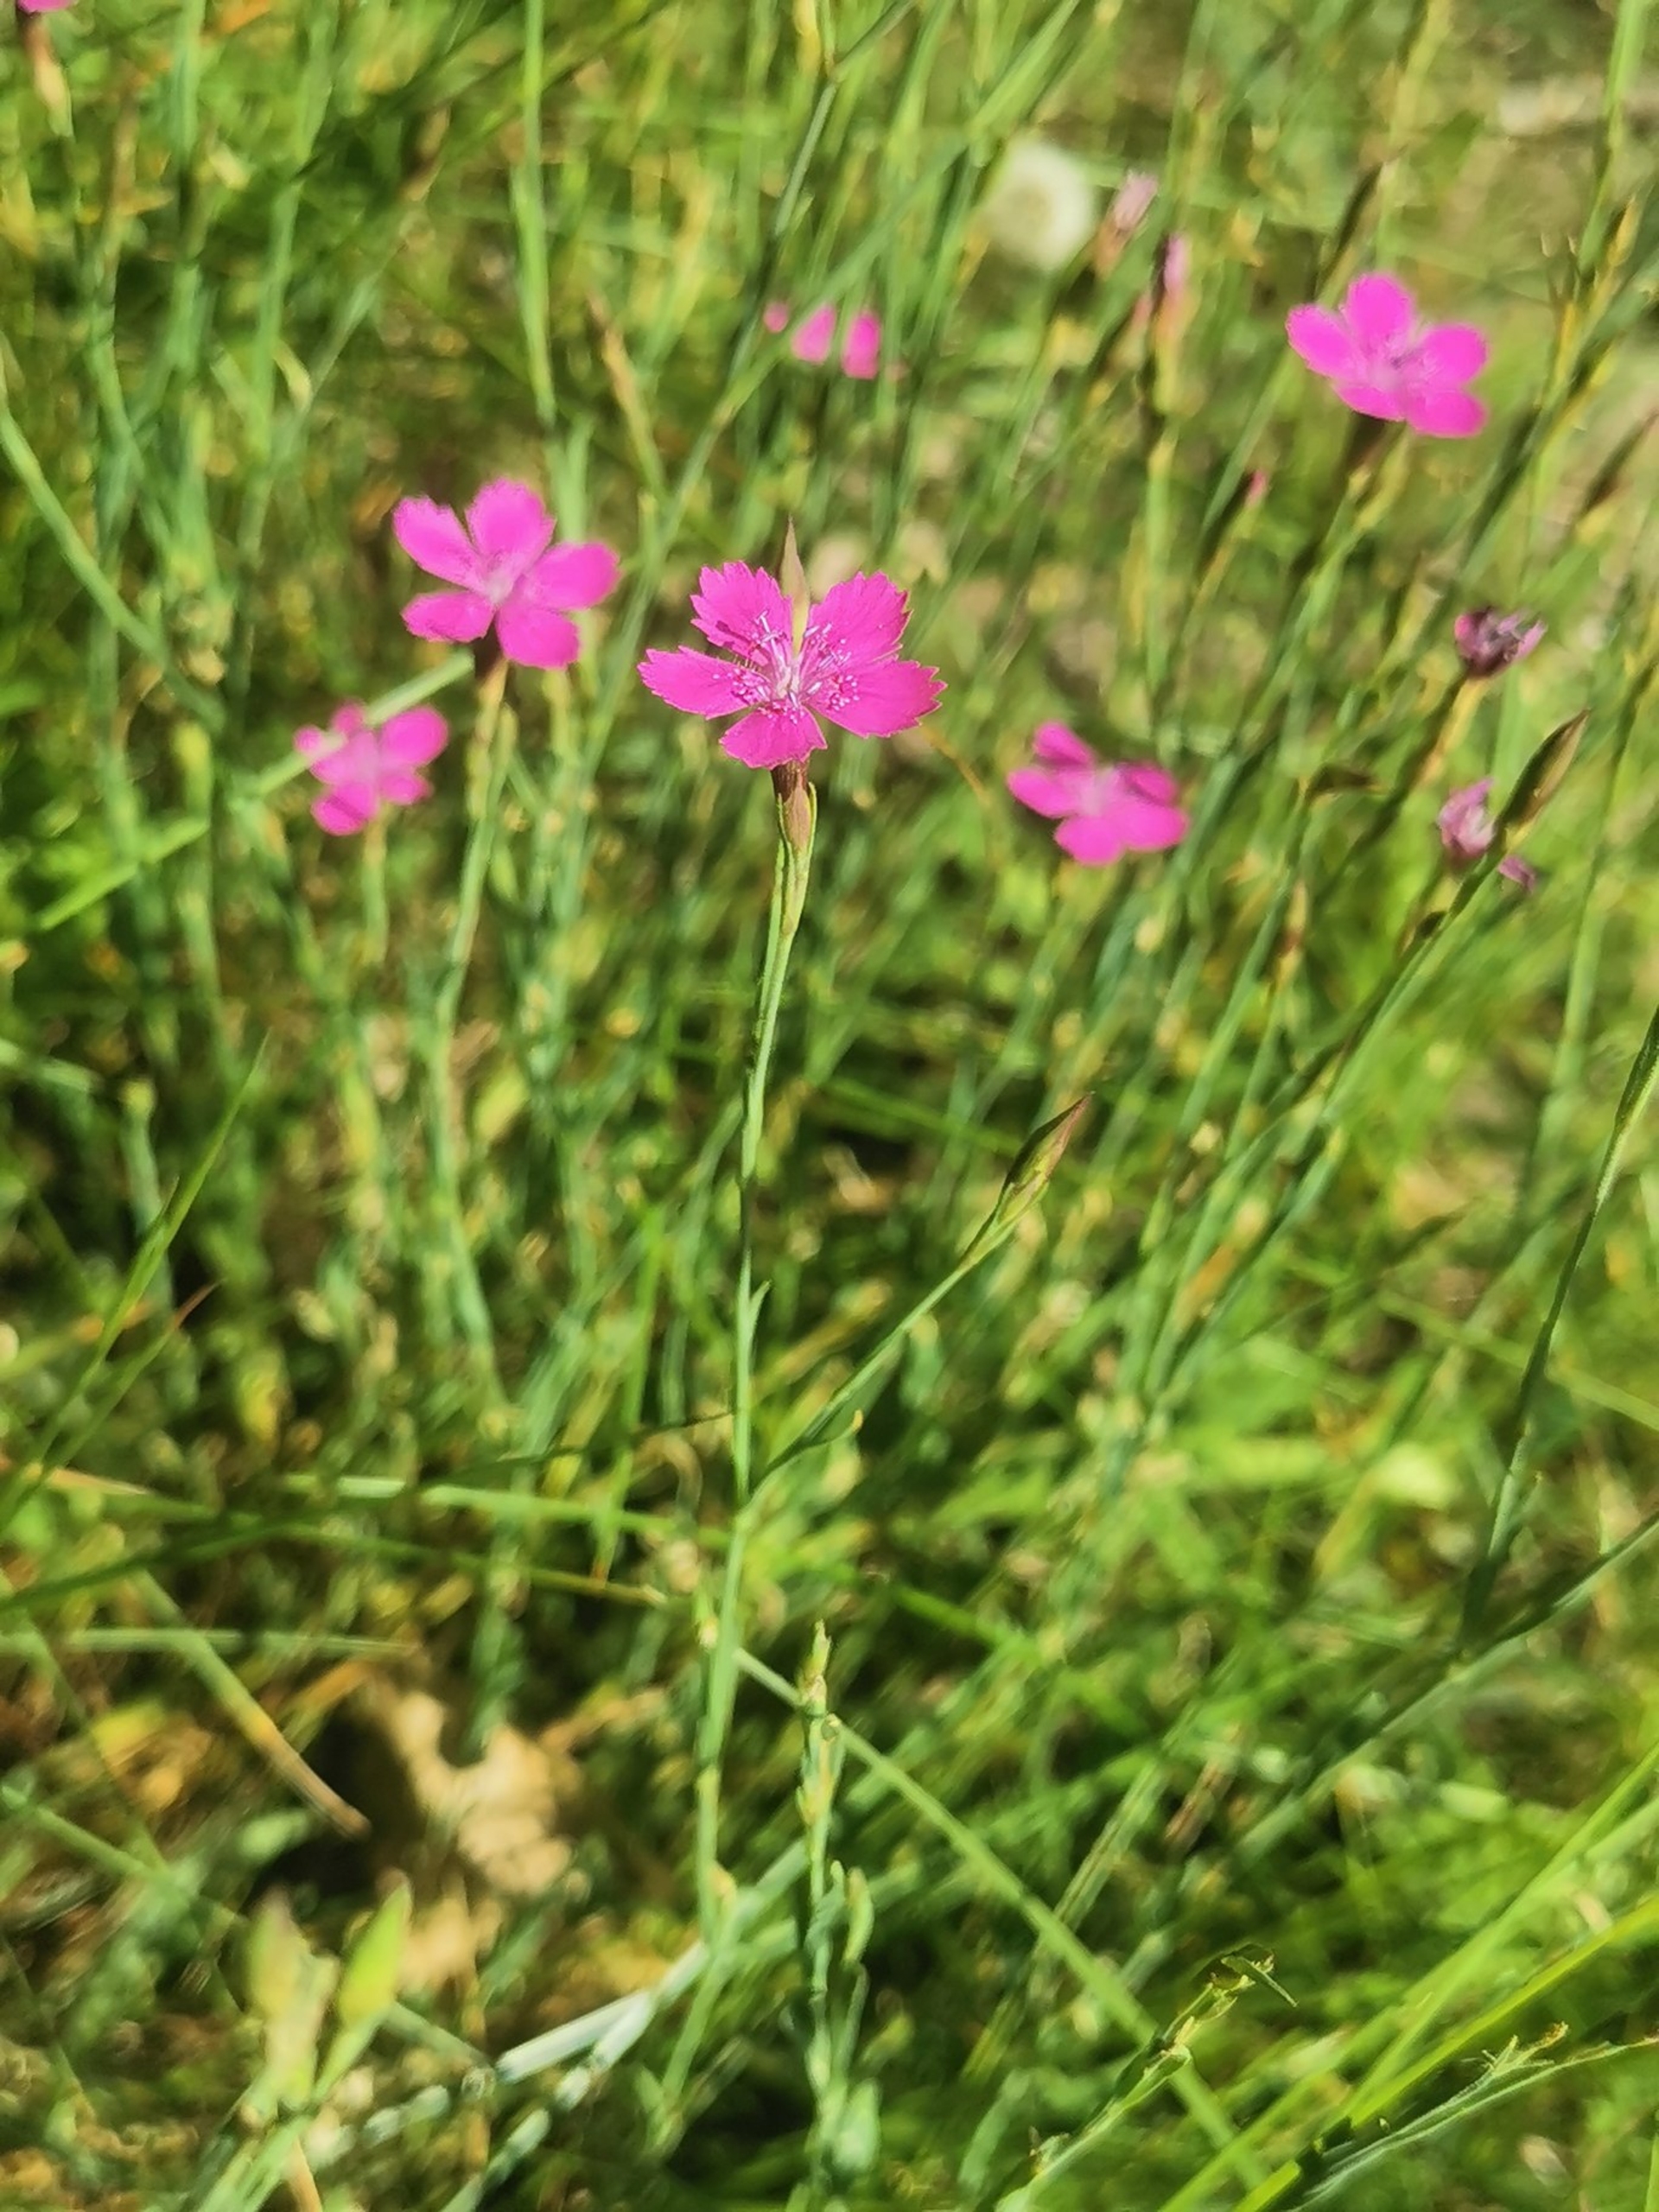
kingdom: Plantae
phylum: Tracheophyta
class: Magnoliopsida
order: Caryophyllales
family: Caryophyllaceae
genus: Dianthus
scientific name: Dianthus deltoides
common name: Bakke-nellike
